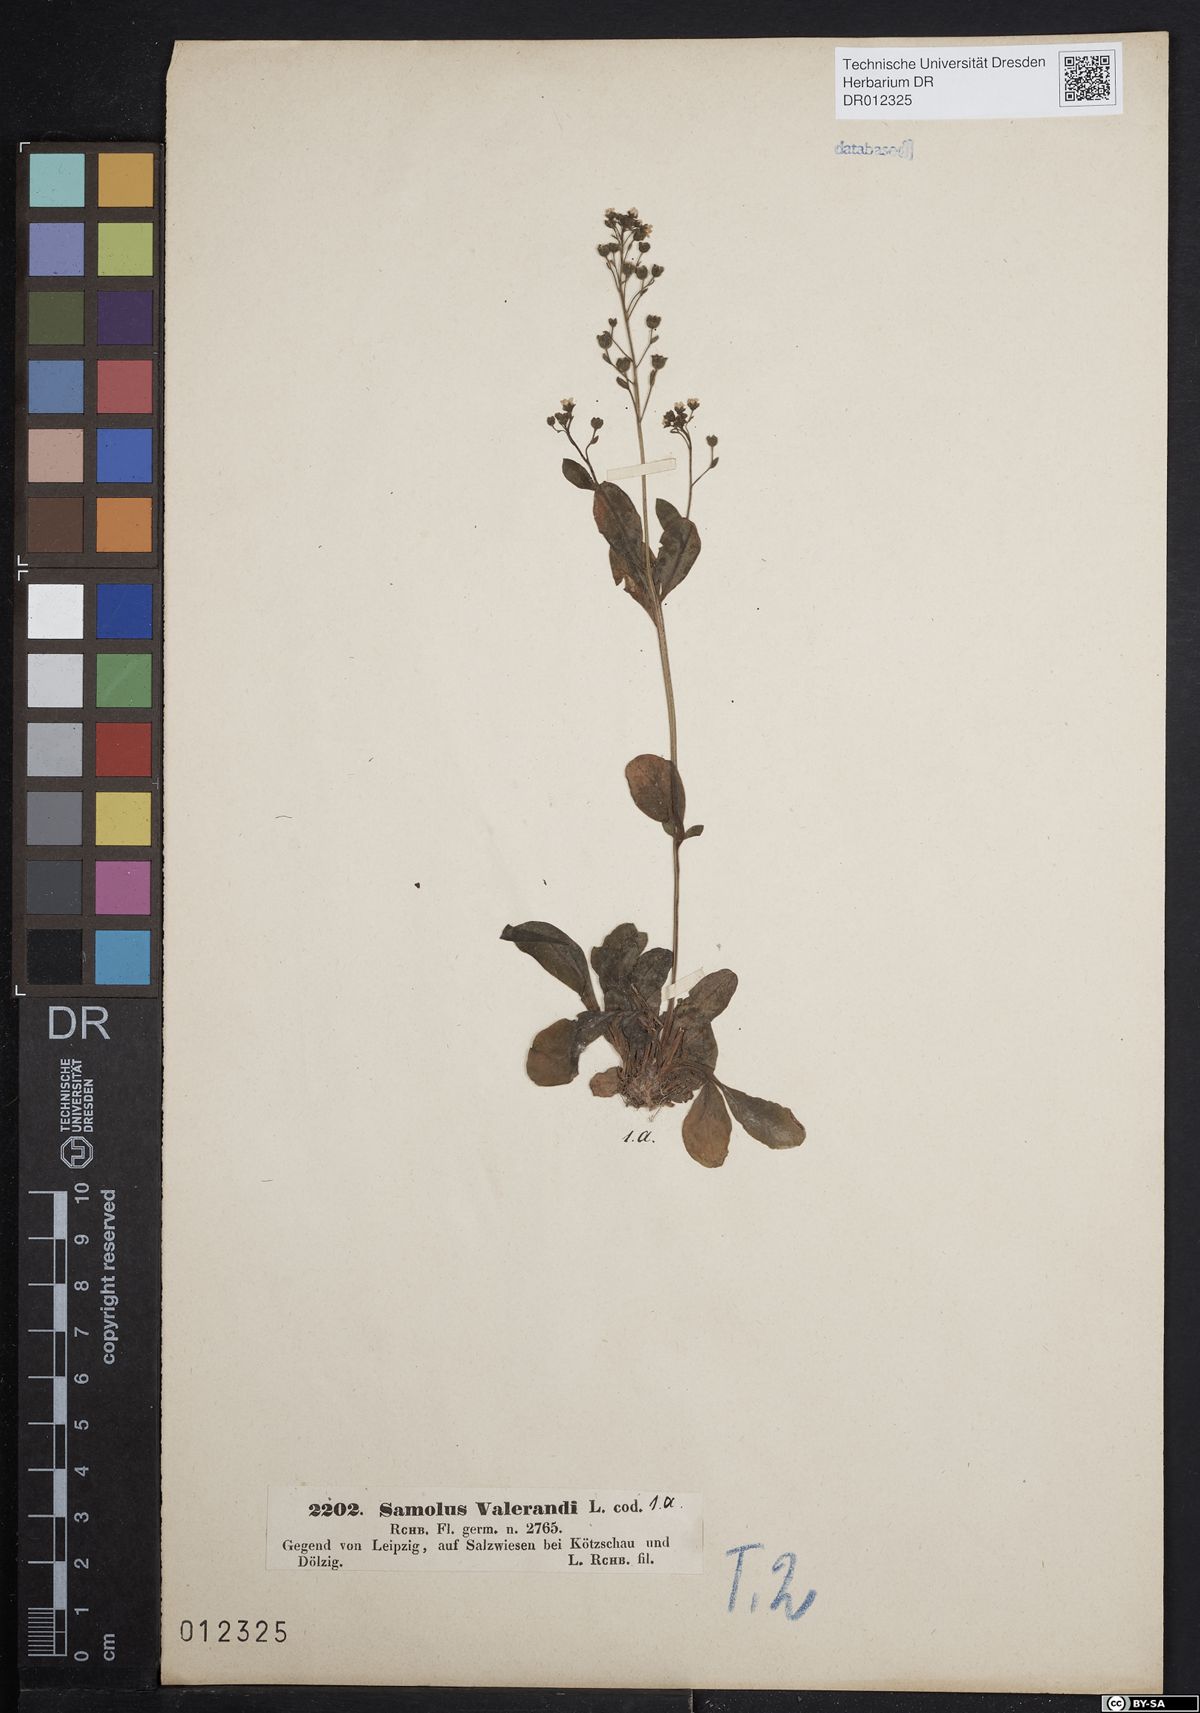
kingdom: Plantae
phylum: Tracheophyta
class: Magnoliopsida
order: Ericales
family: Primulaceae
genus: Samolus
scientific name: Samolus valerandi
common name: Brookweed
